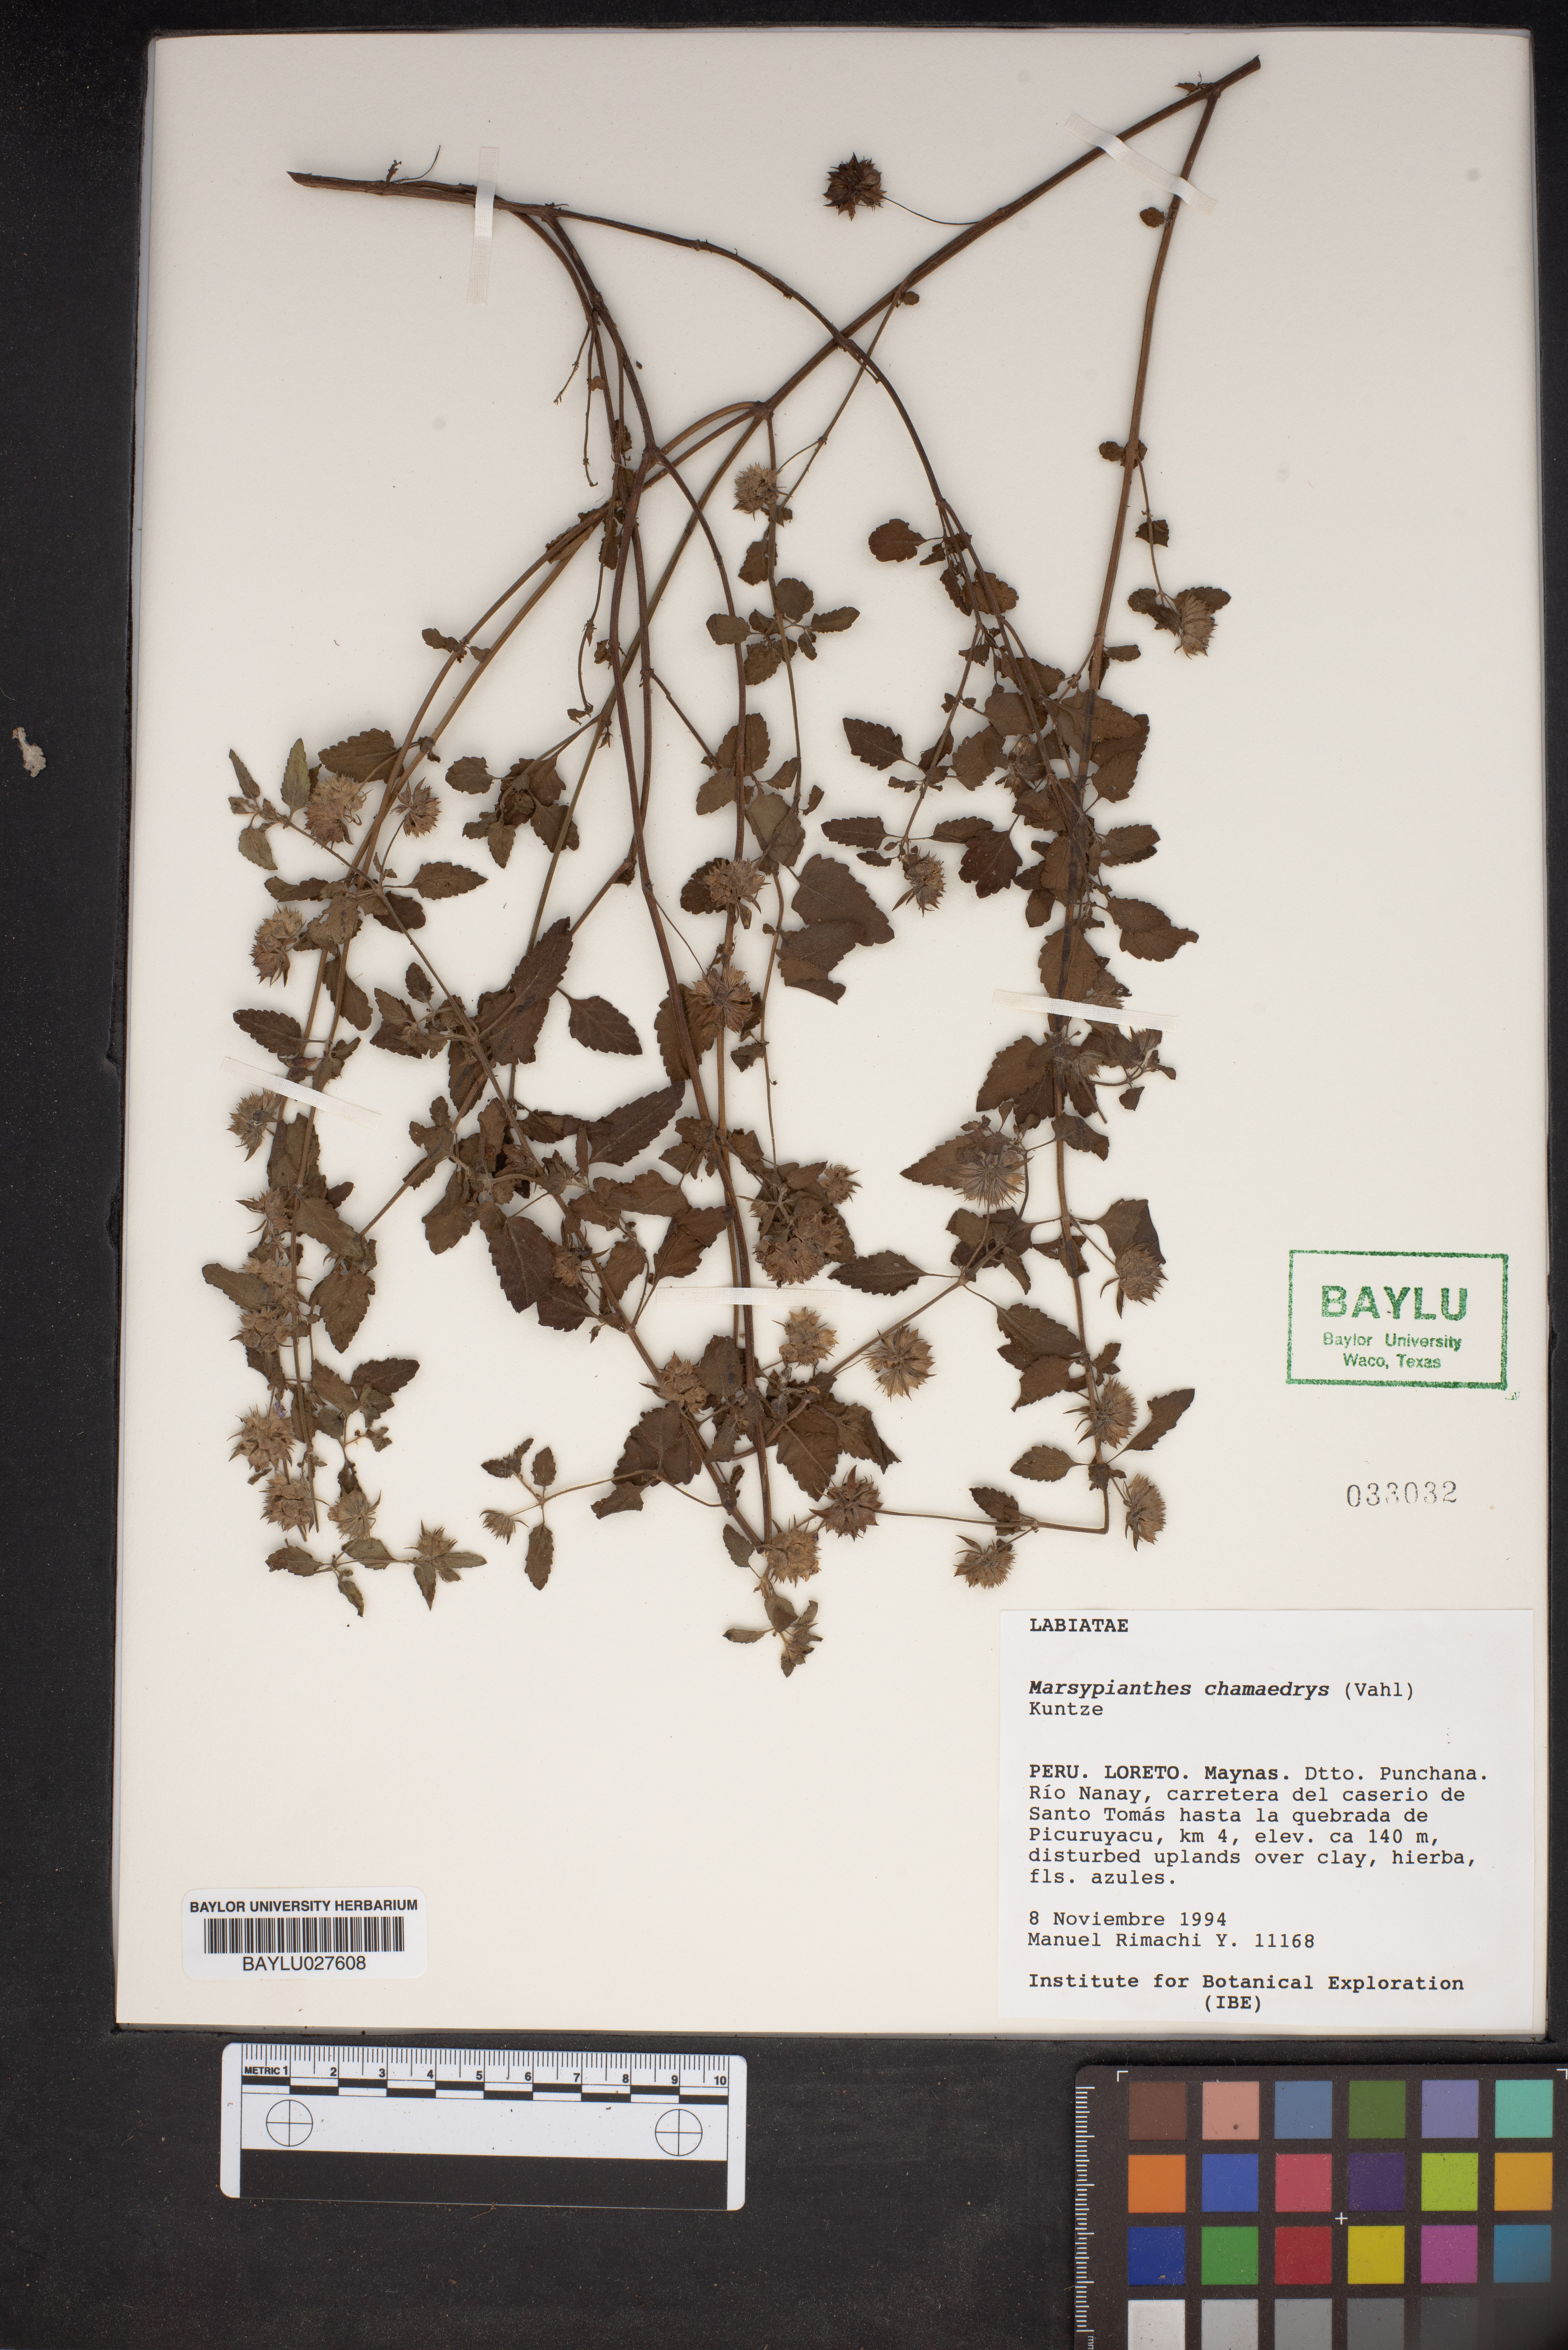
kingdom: Plantae
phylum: Tracheophyta
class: Magnoliopsida
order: Lamiales
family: Lamiaceae
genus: Marsypianthes
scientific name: Marsypianthes chamaedrys
